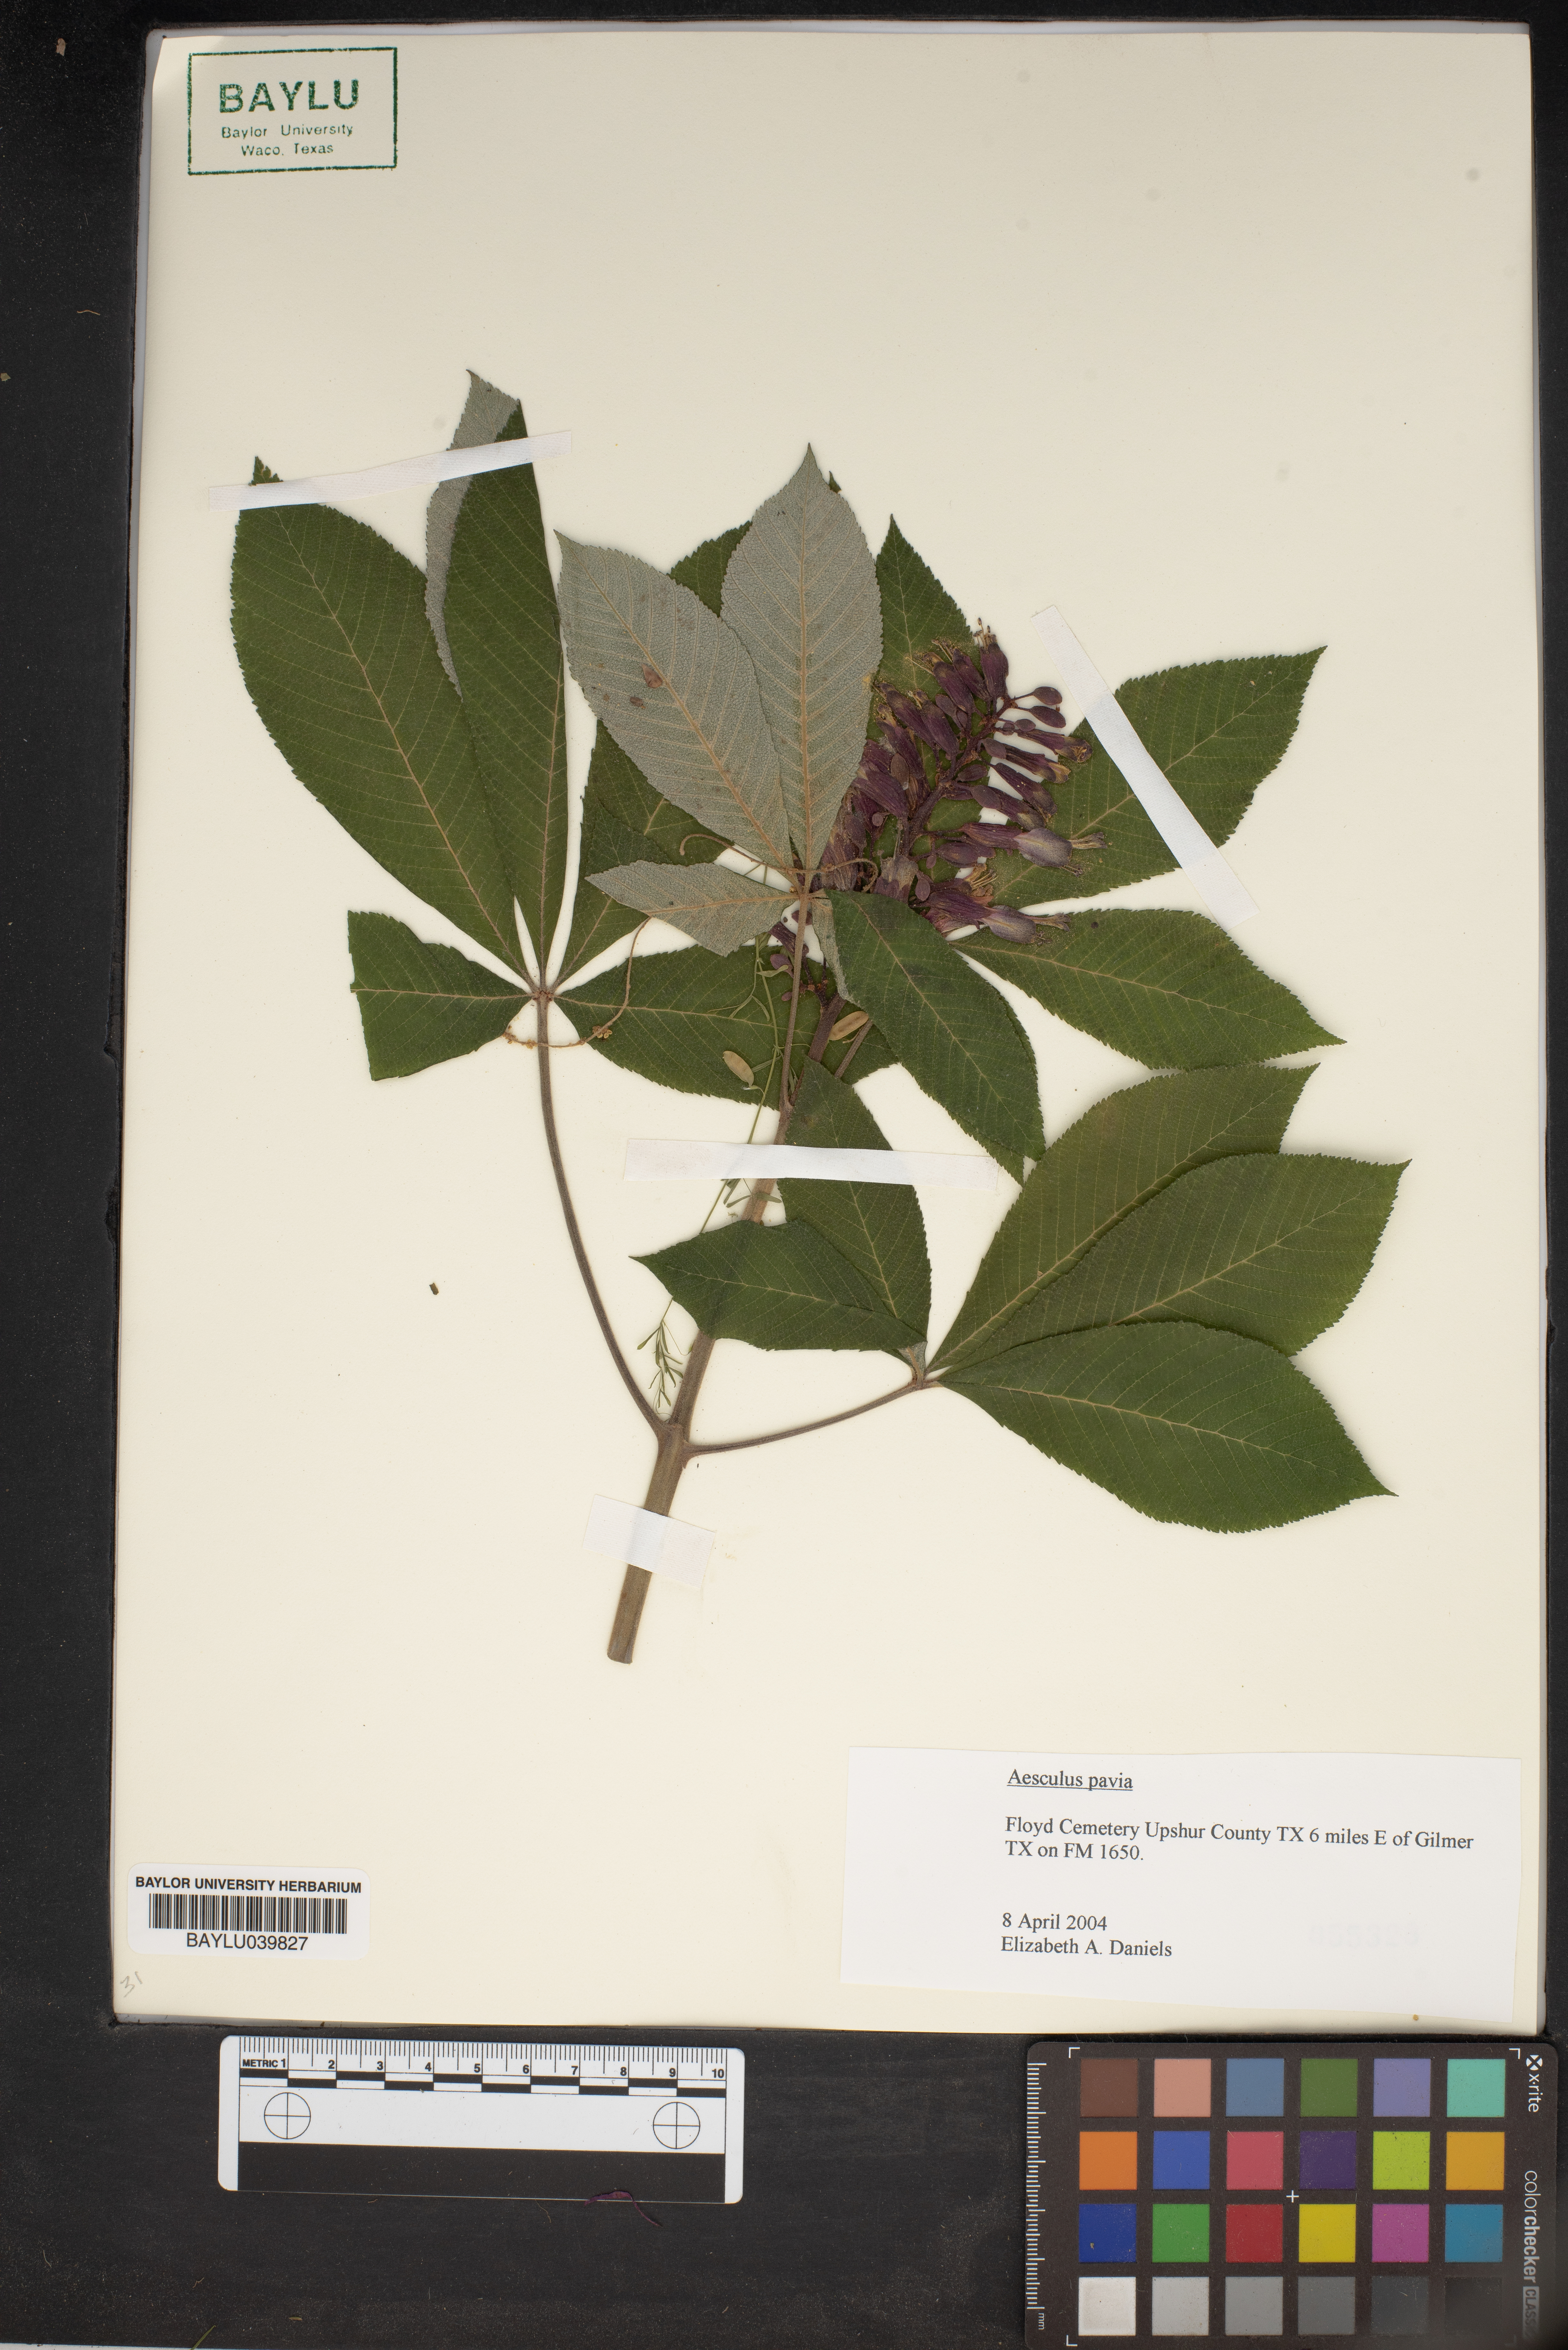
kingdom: Plantae
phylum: Tracheophyta
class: Magnoliopsida
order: Sapindales
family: Sapindaceae
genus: Aesculus
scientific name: Aesculus pavia
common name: Red buckeye
